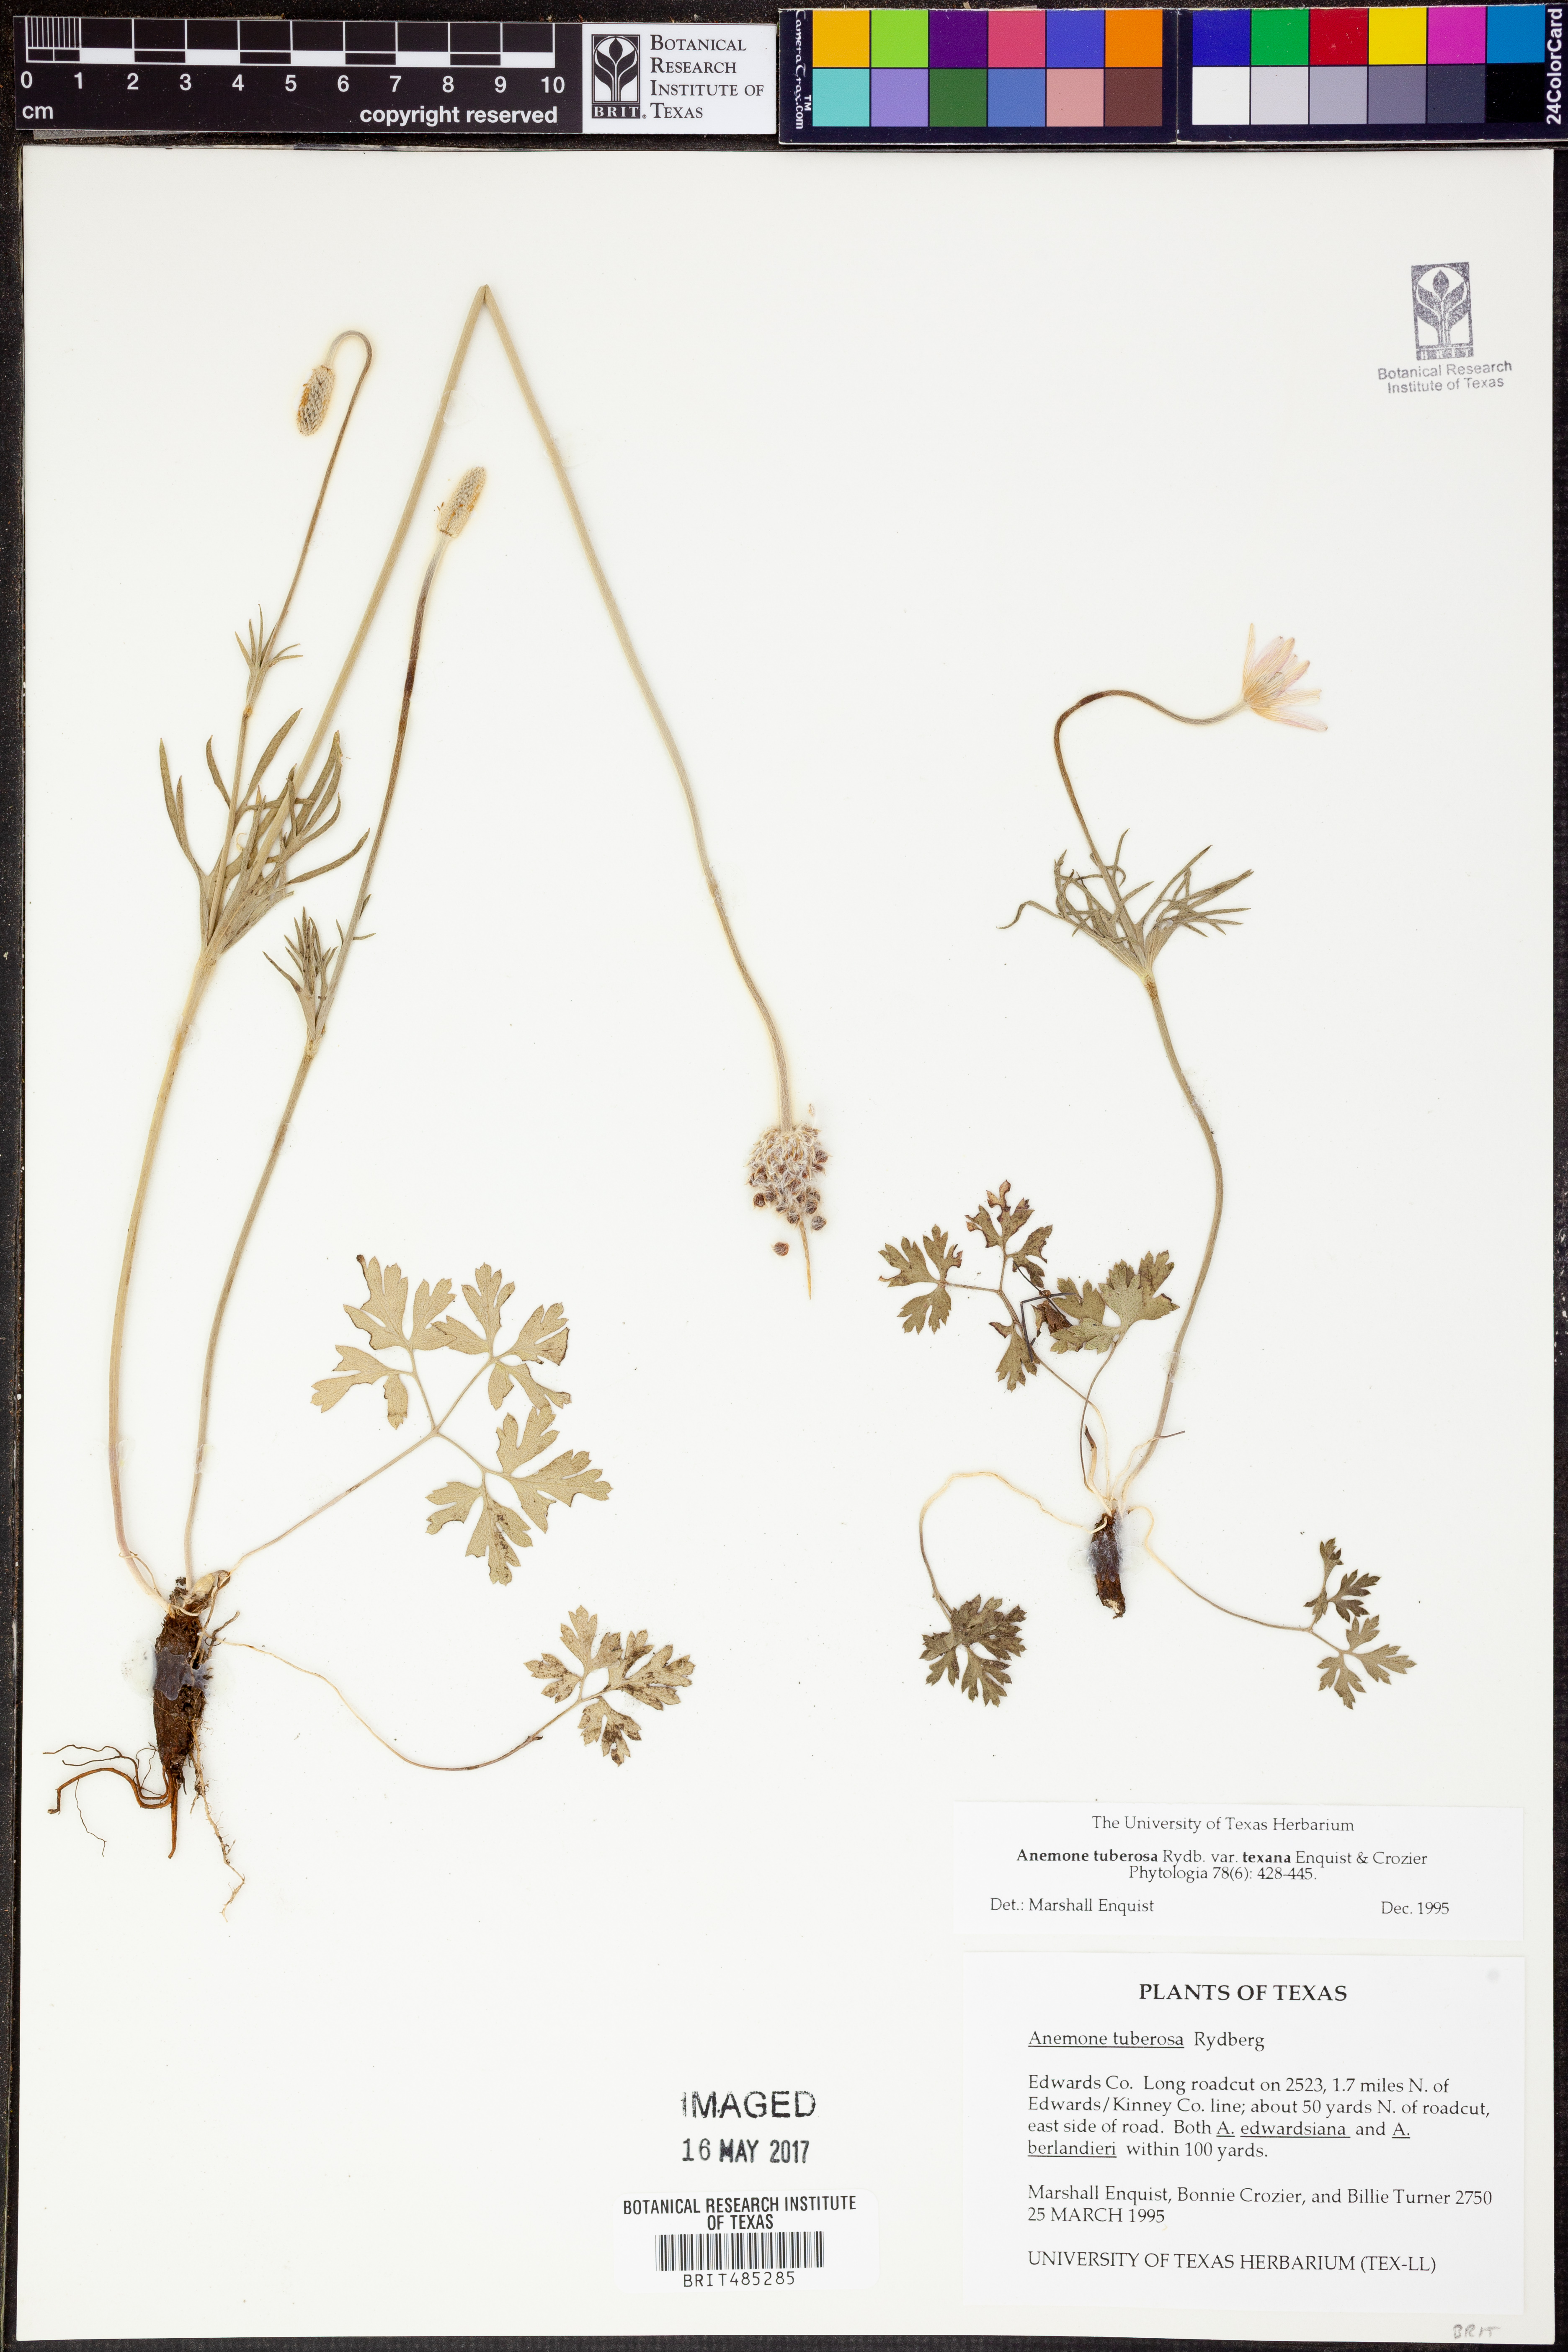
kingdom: Plantae
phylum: Tracheophyta
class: Magnoliopsida
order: Ranunculales
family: Ranunculaceae
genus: Anemone
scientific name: Anemone tuberosa
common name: Desert anemone
